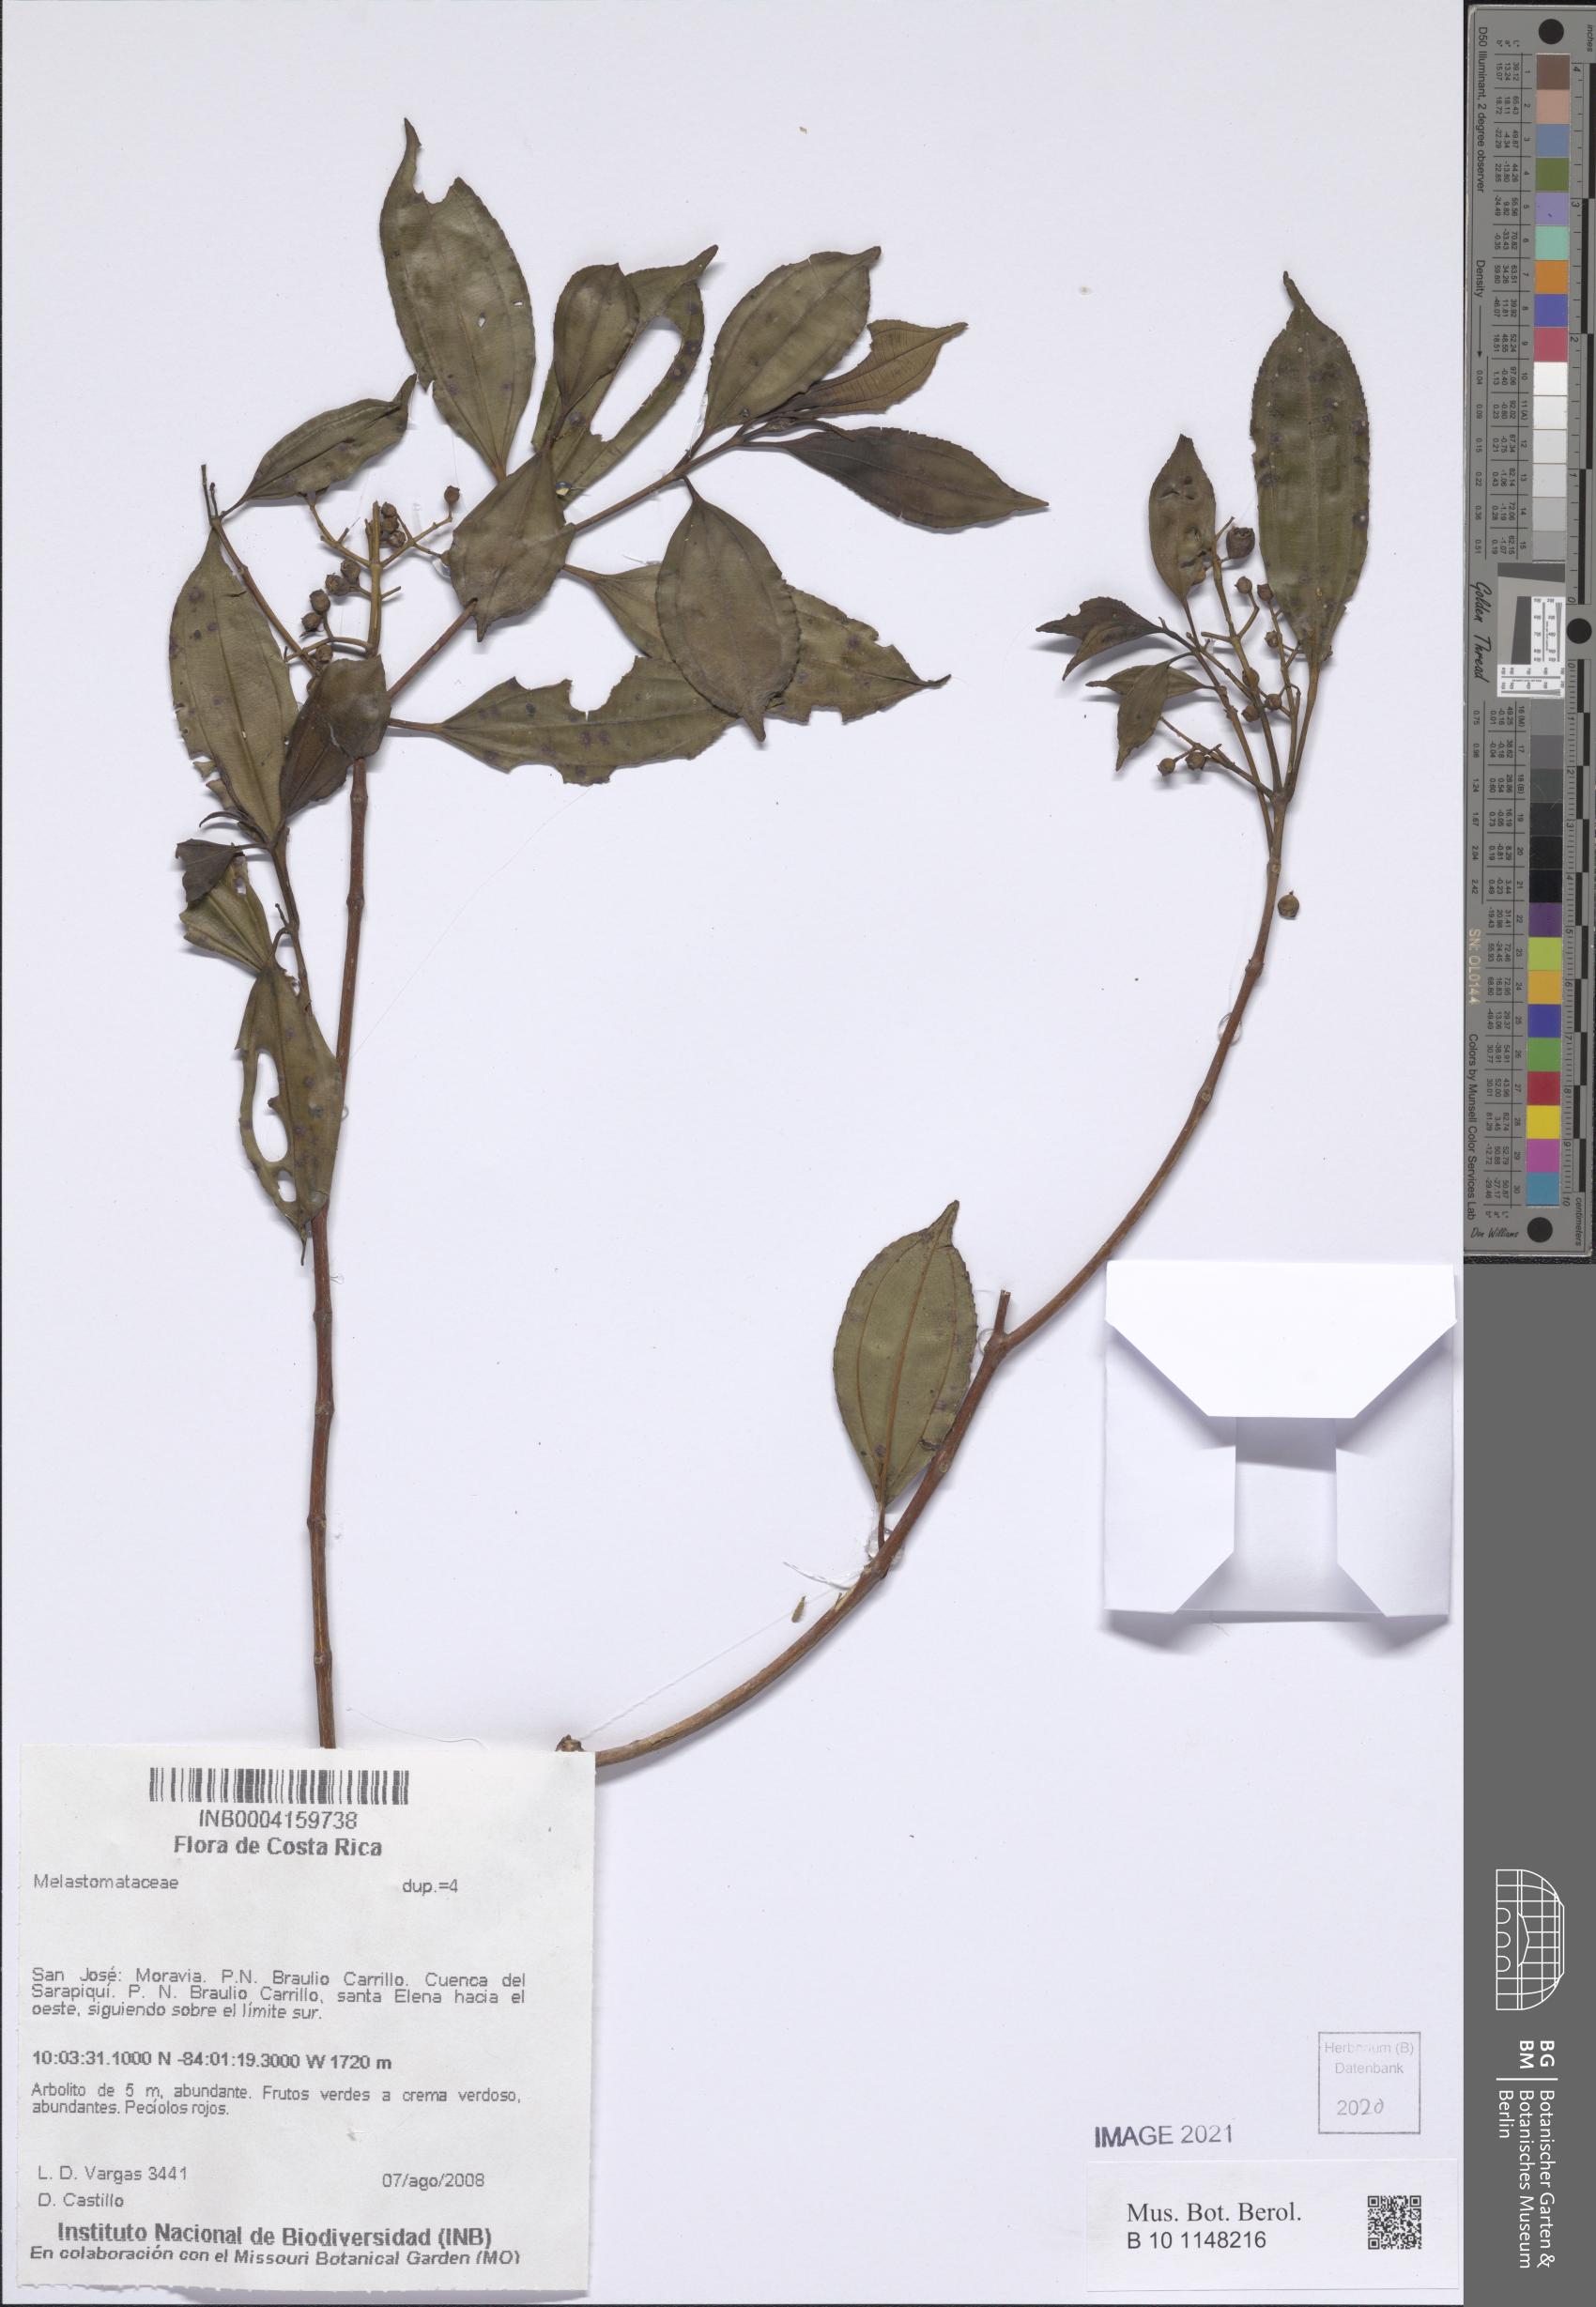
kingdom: Plantae
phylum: Tracheophyta
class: Magnoliopsida
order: Myrtales
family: Melastomataceae
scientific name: Melastomataceae
